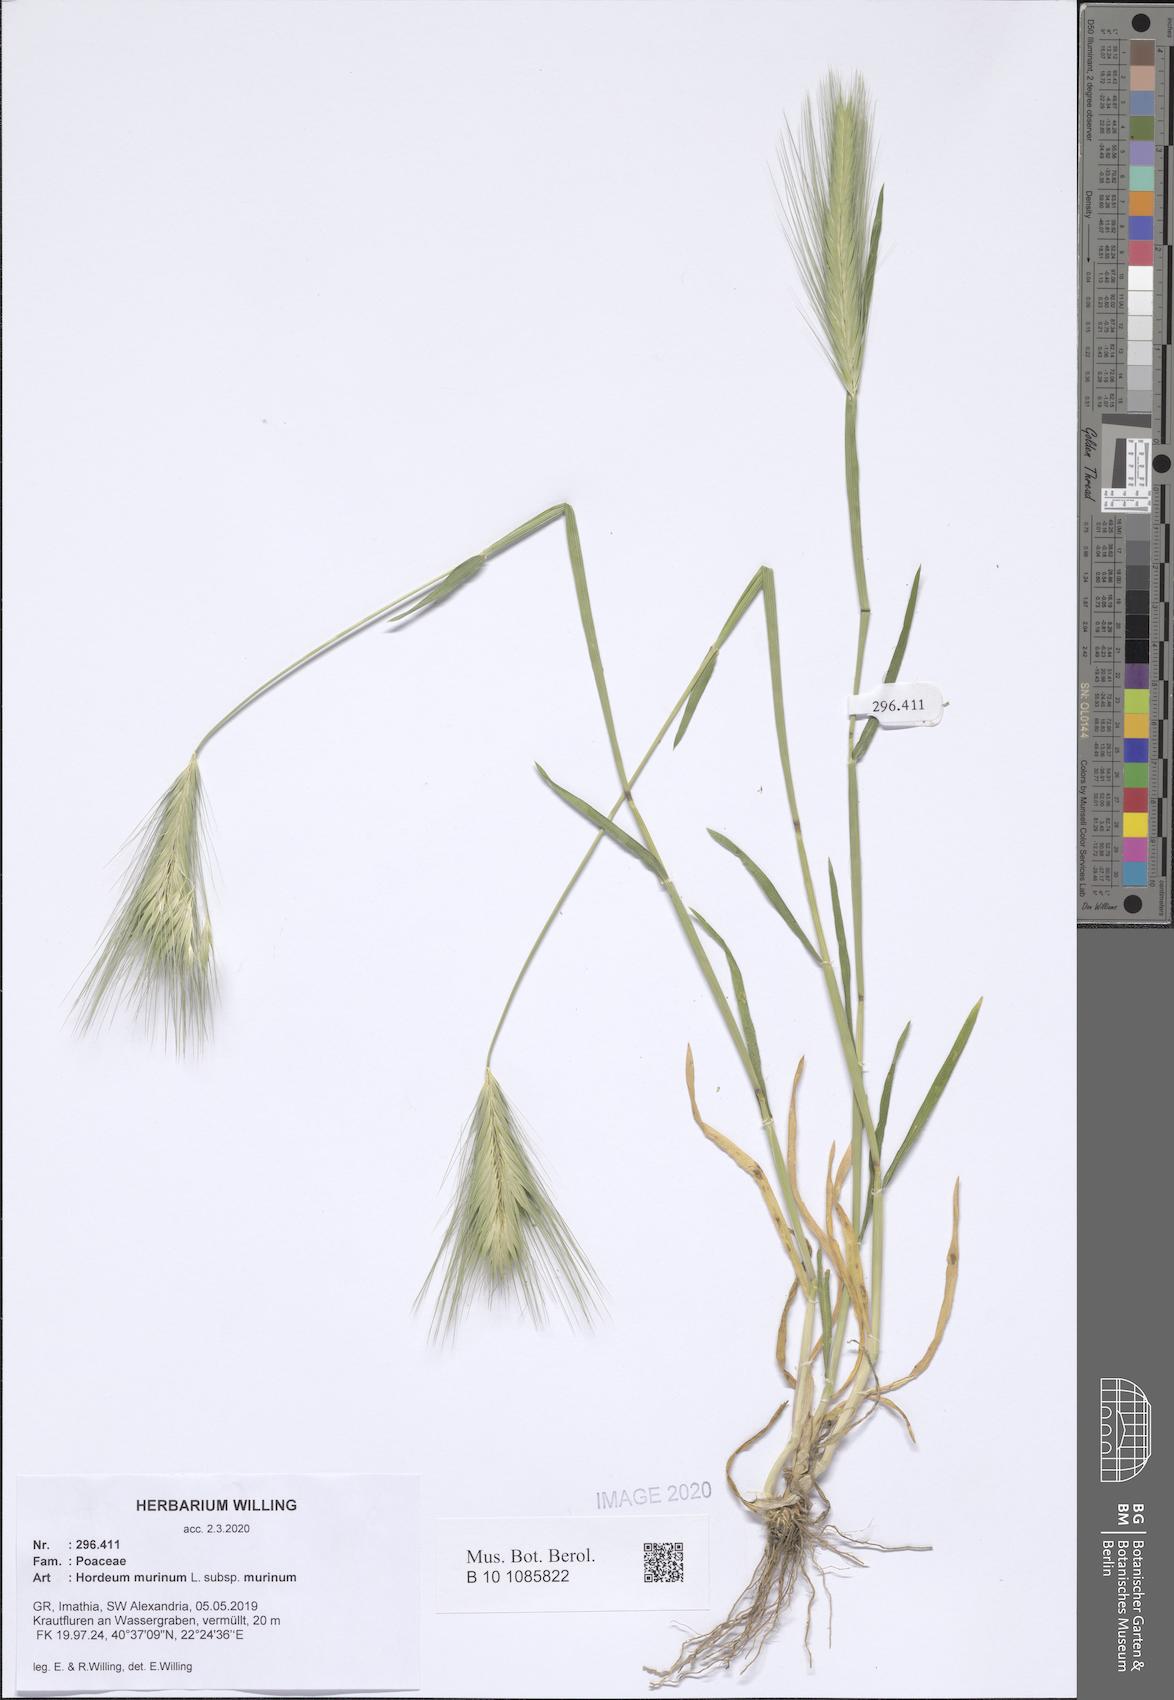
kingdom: Plantae
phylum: Tracheophyta
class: Liliopsida
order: Poales
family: Poaceae
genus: Hordeum
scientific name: Hordeum murinum
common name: Wall barley
